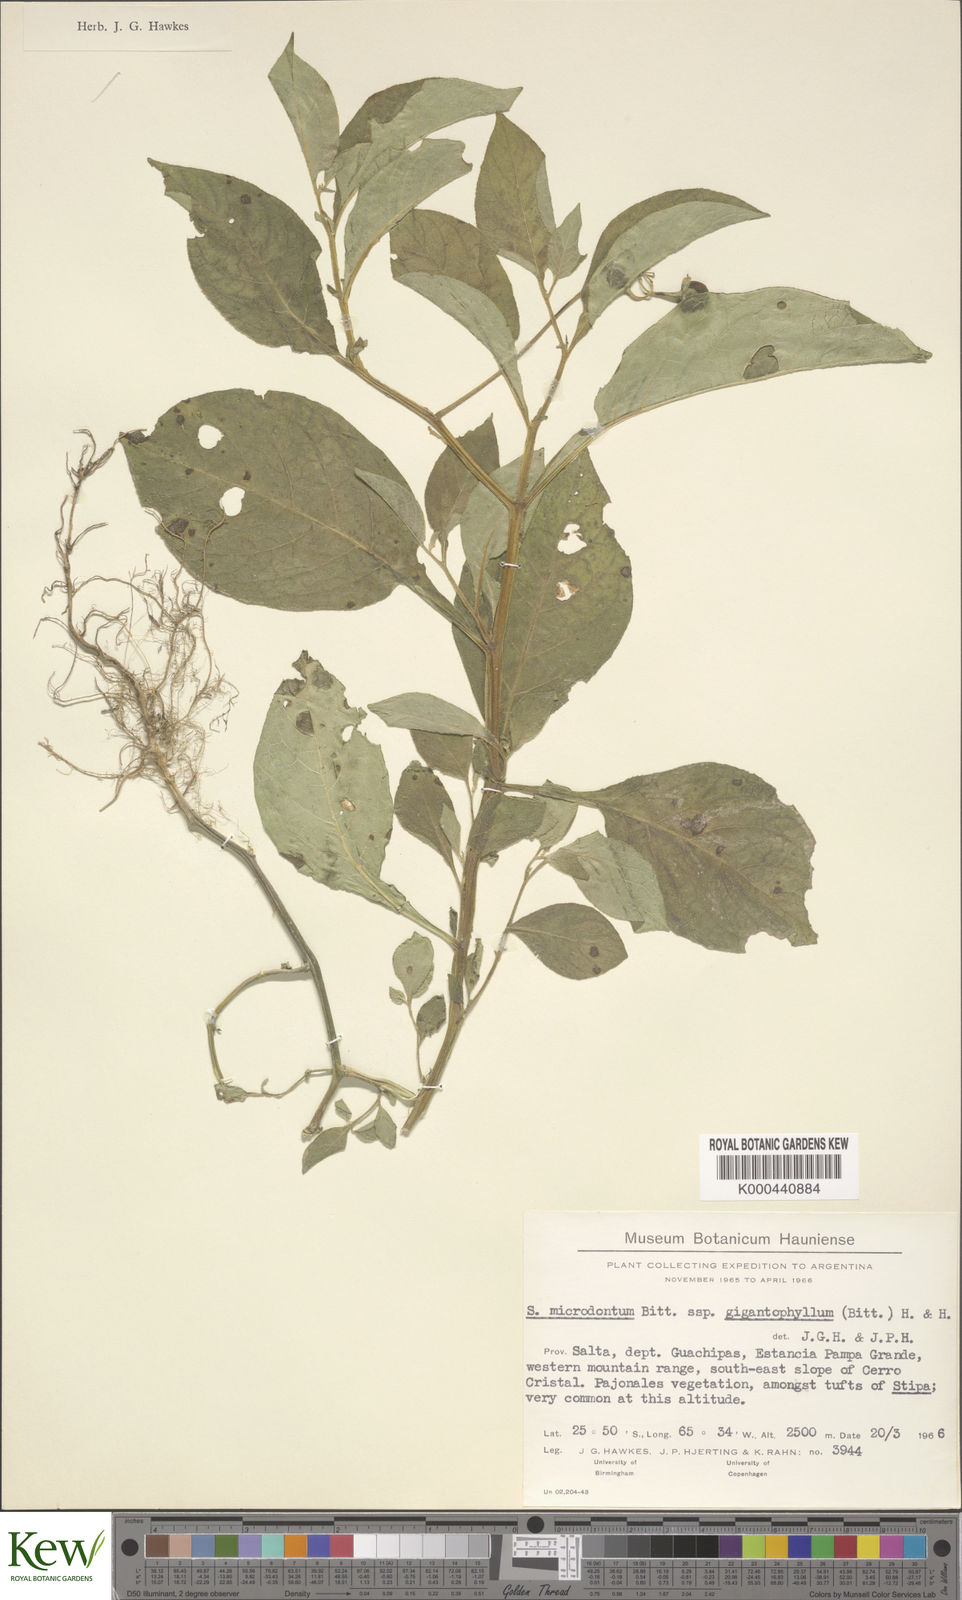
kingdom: Plantae
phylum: Tracheophyta
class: Magnoliopsida
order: Solanales
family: Solanaceae
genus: Solanum
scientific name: Solanum microdontum
